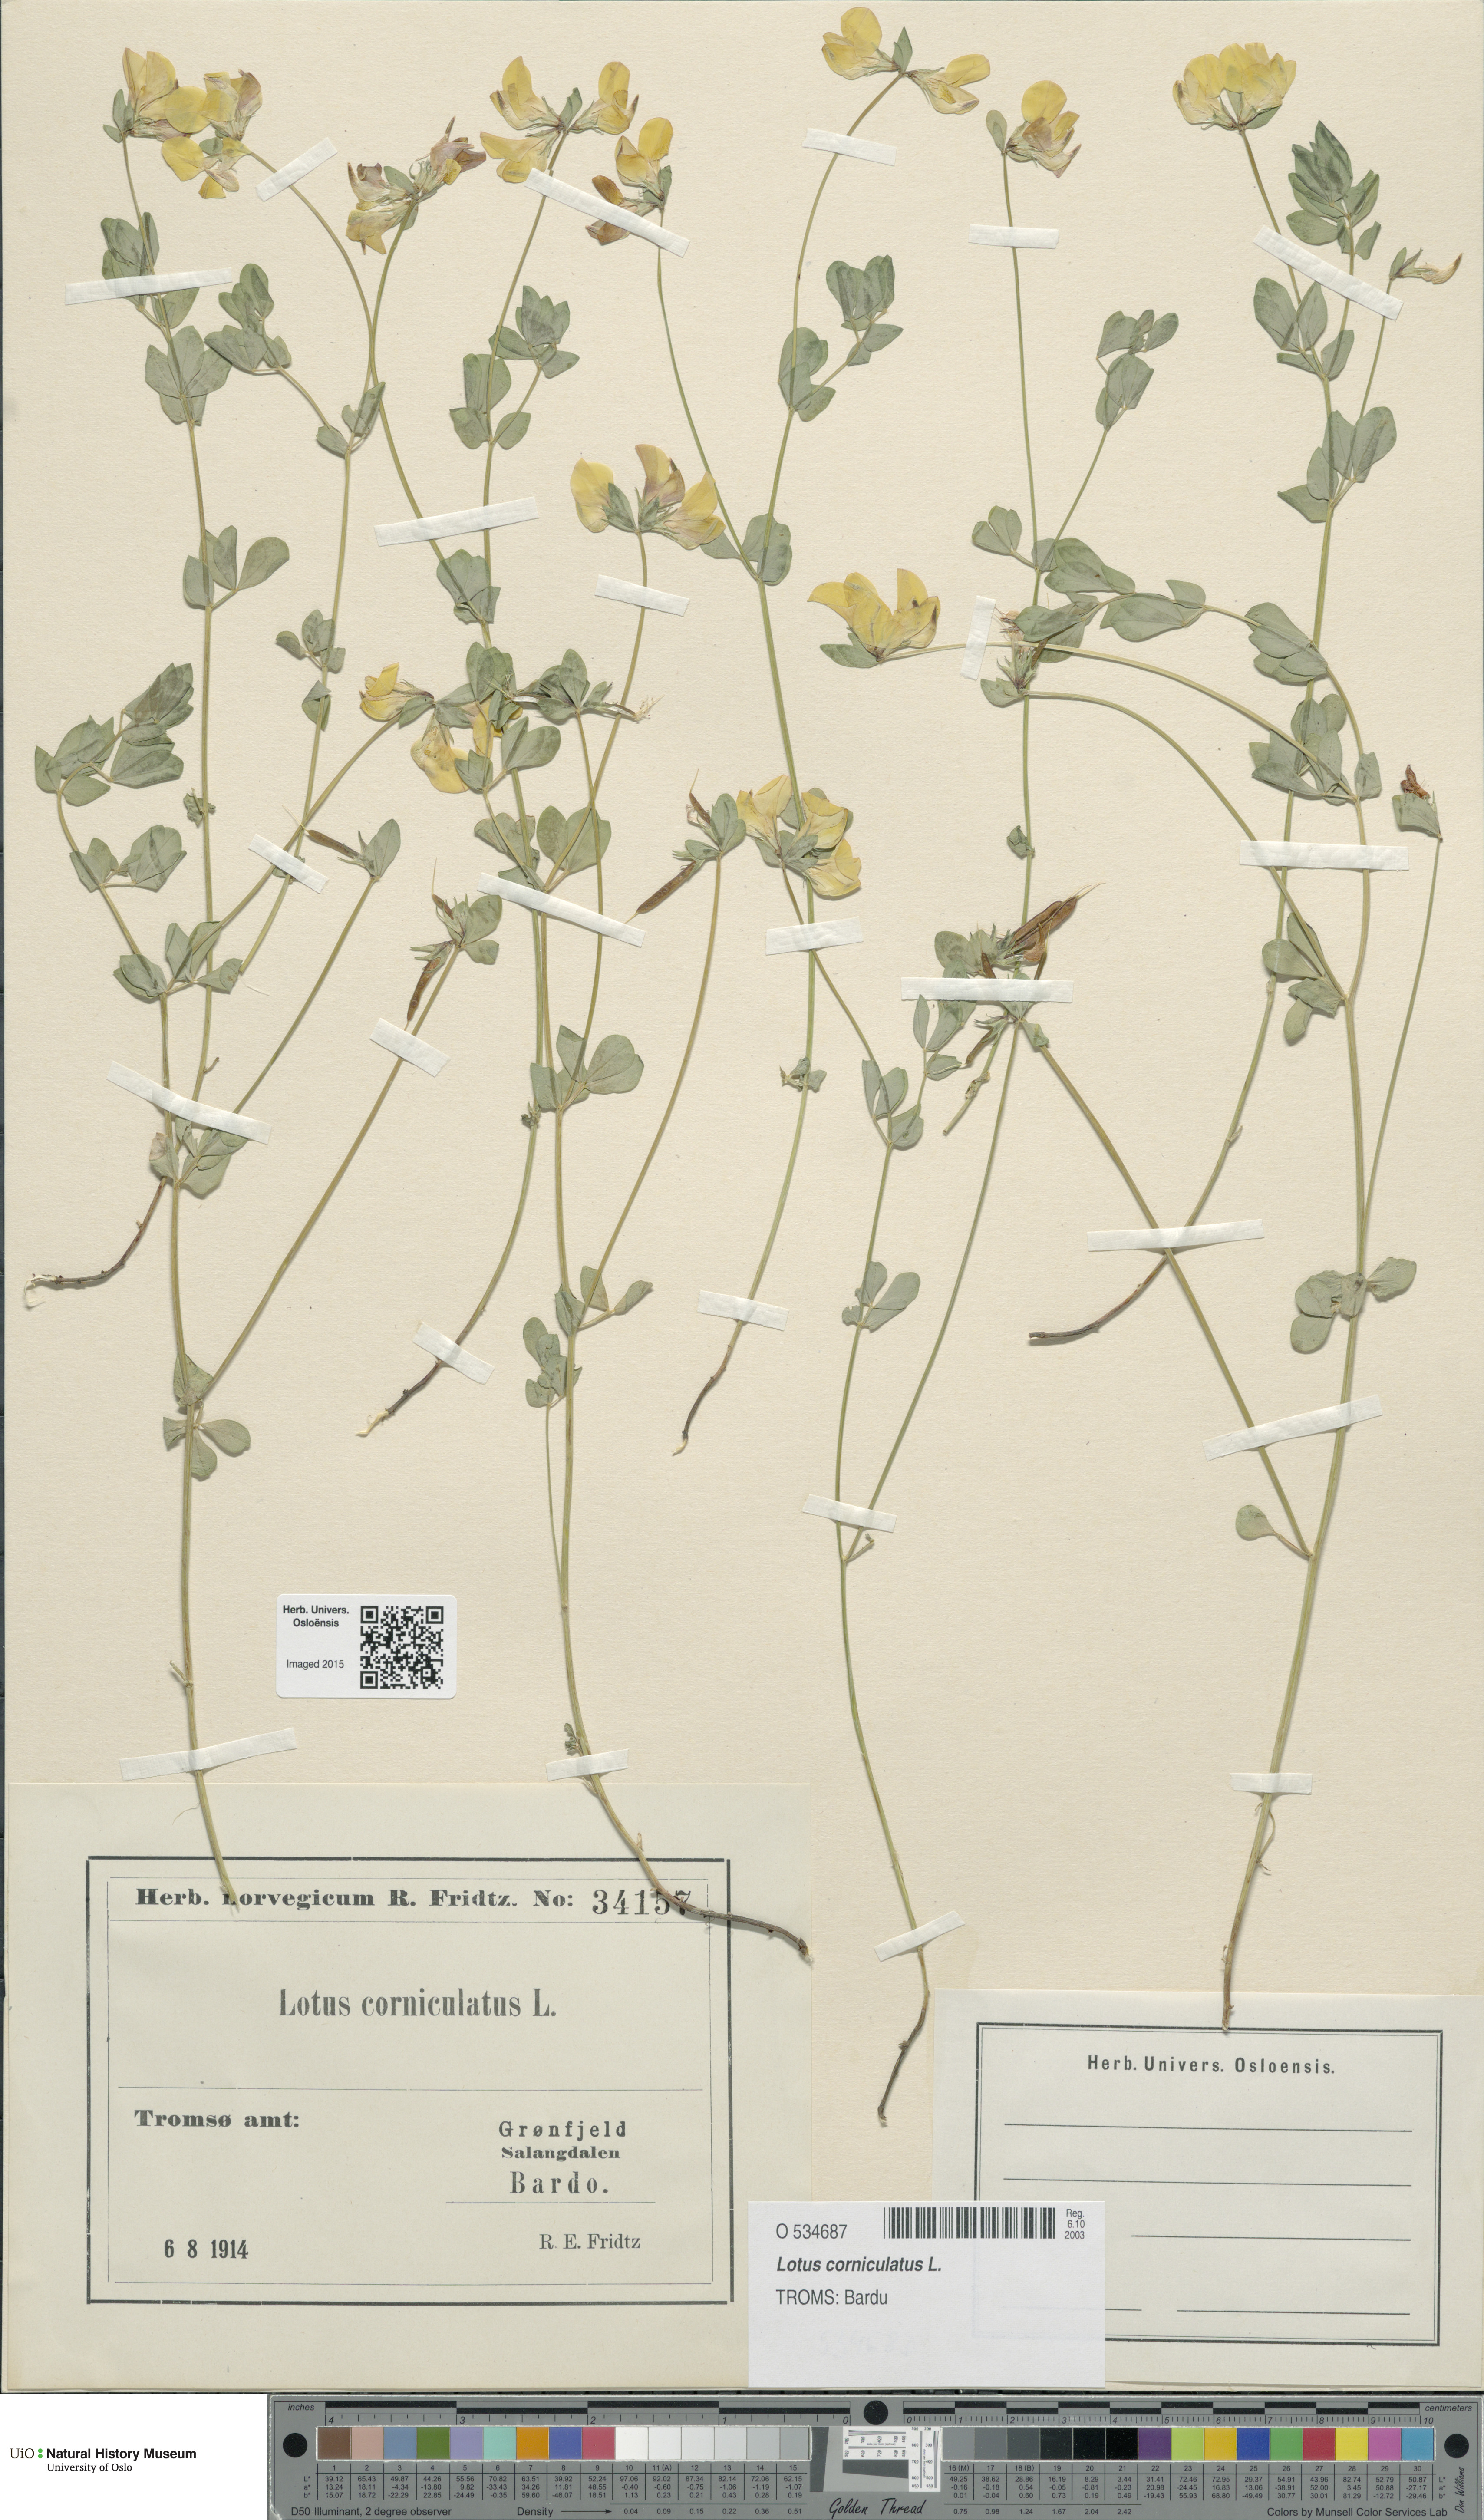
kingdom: Plantae
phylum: Tracheophyta
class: Magnoliopsida
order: Fabales
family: Fabaceae
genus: Lotus
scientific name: Lotus corniculatus
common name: Common bird's-foot-trefoil
